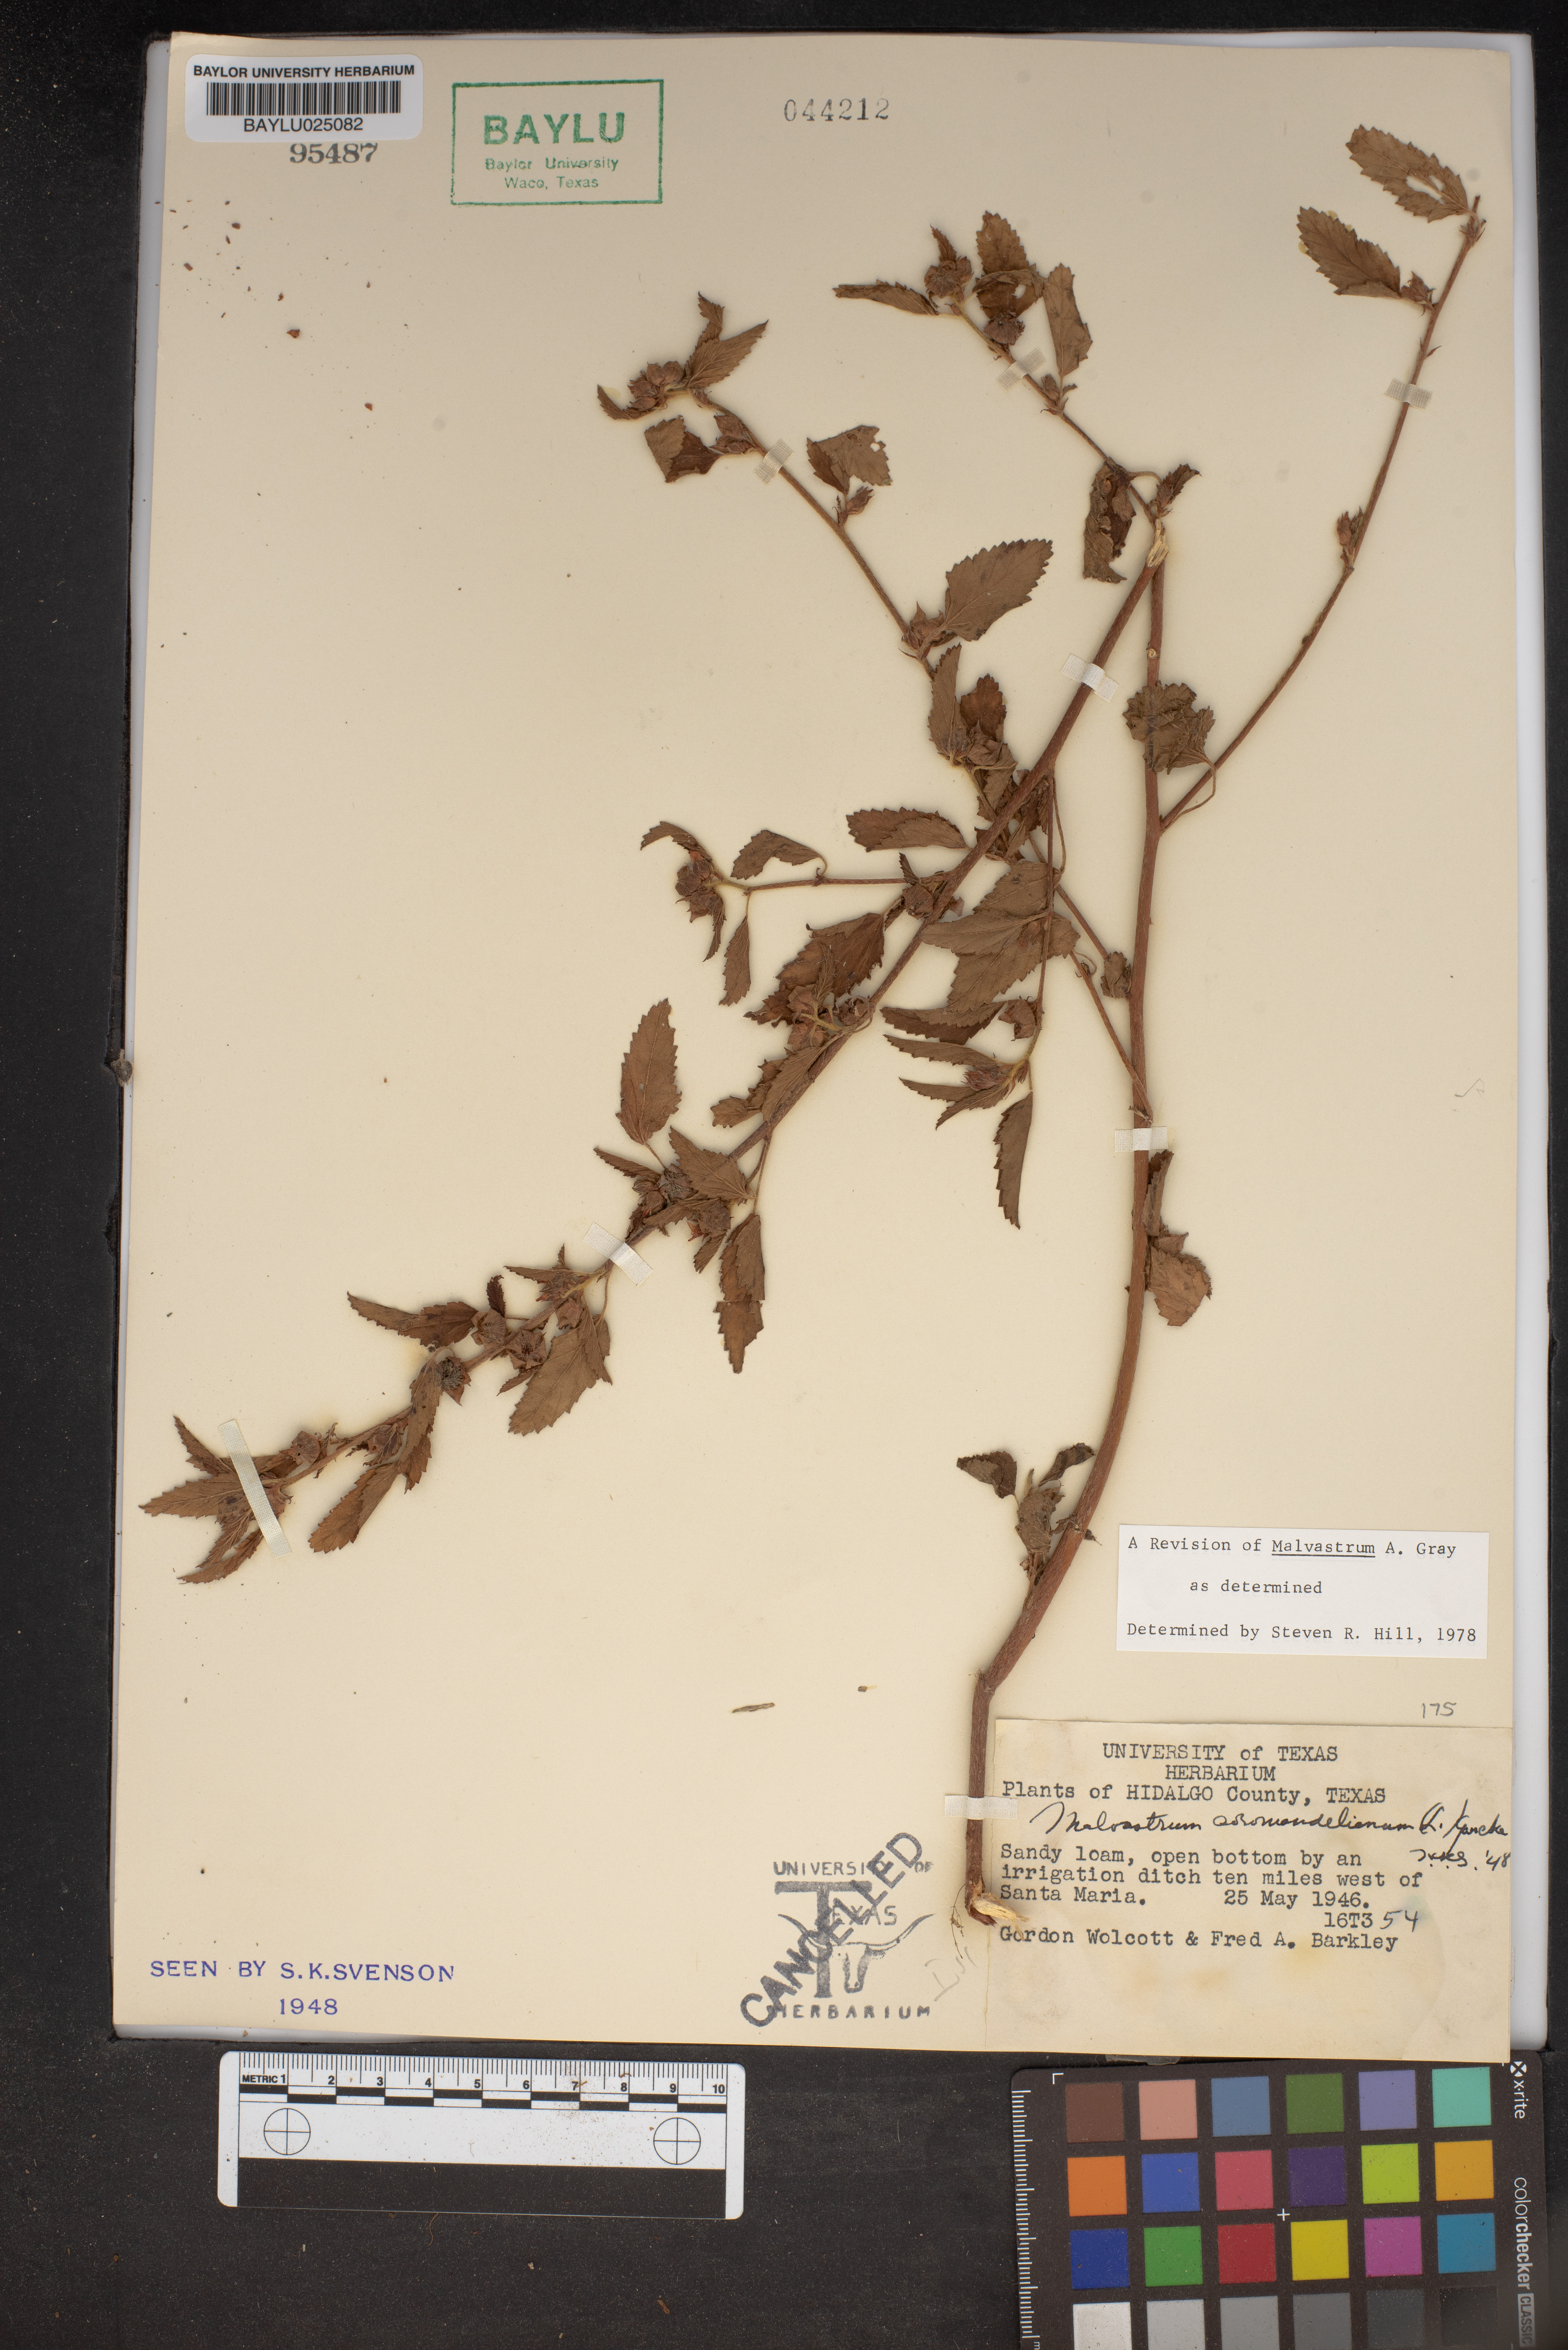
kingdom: Plantae
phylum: Tracheophyta
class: Magnoliopsida
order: Malvales
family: Malvaceae
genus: Malvastrum
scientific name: Malvastrum coromandelianum
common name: Threelobe false mallow
